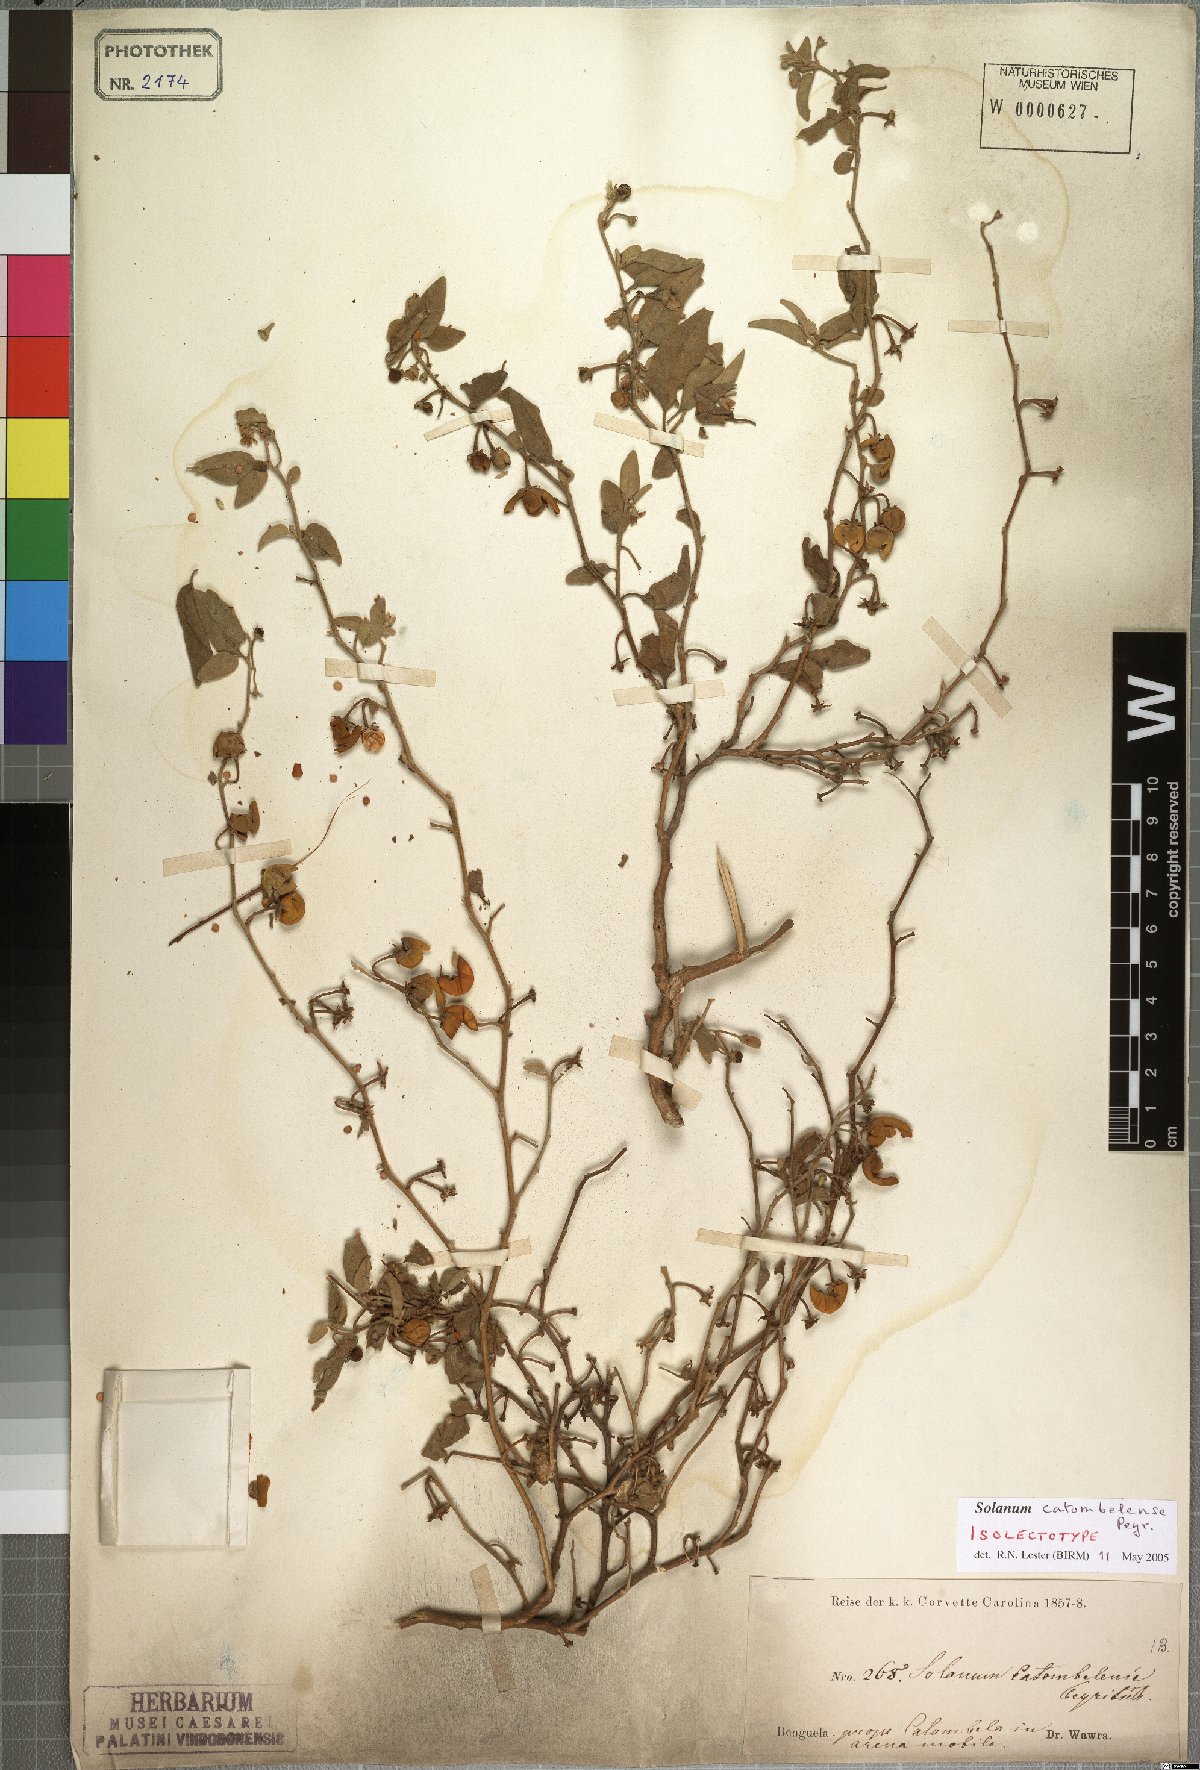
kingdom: Plantae
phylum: Tracheophyta
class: Magnoliopsida
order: Solanales
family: Solanaceae
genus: Solanum
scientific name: Solanum catombelense
